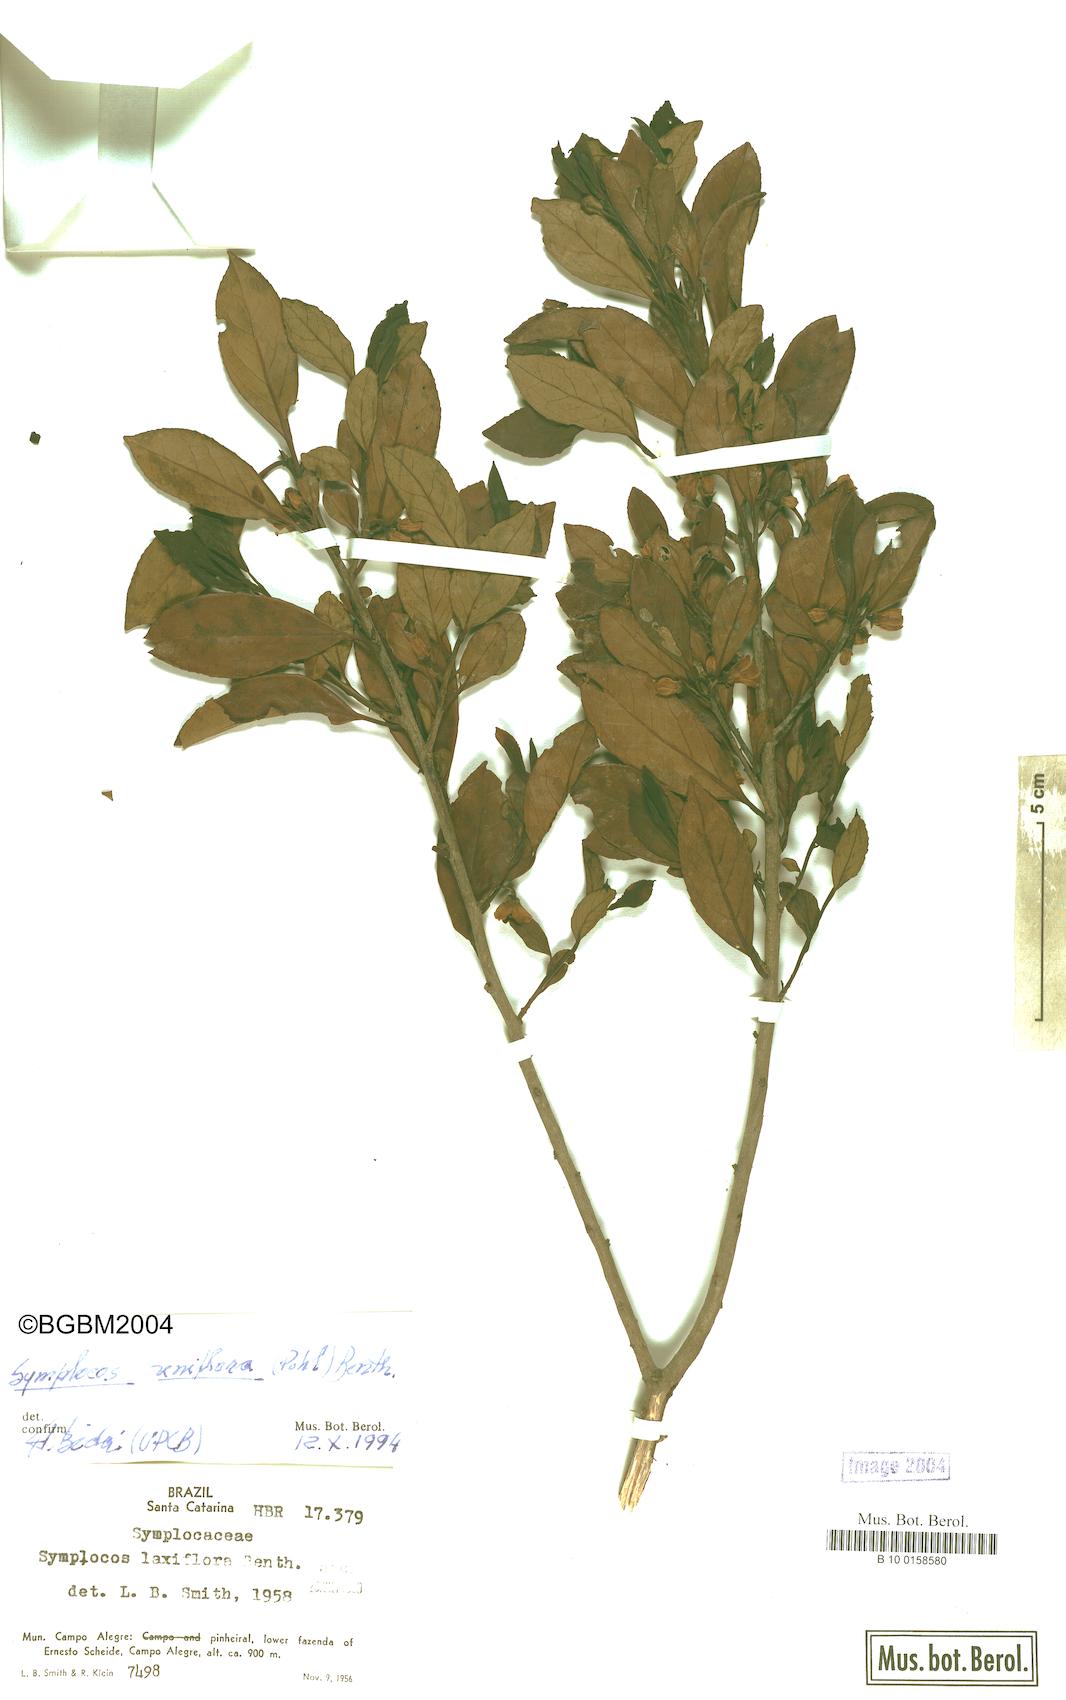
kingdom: Plantae
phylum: Tracheophyta
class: Magnoliopsida
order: Ericales
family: Symplocaceae
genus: Symplocos
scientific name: Symplocos uniflora
